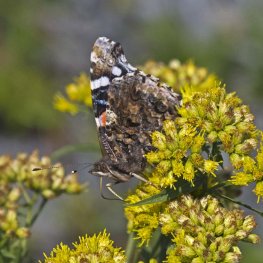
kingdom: Animalia
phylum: Arthropoda
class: Insecta
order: Lepidoptera
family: Nymphalidae
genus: Vanessa
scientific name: Vanessa atalanta
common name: Red Admiral
